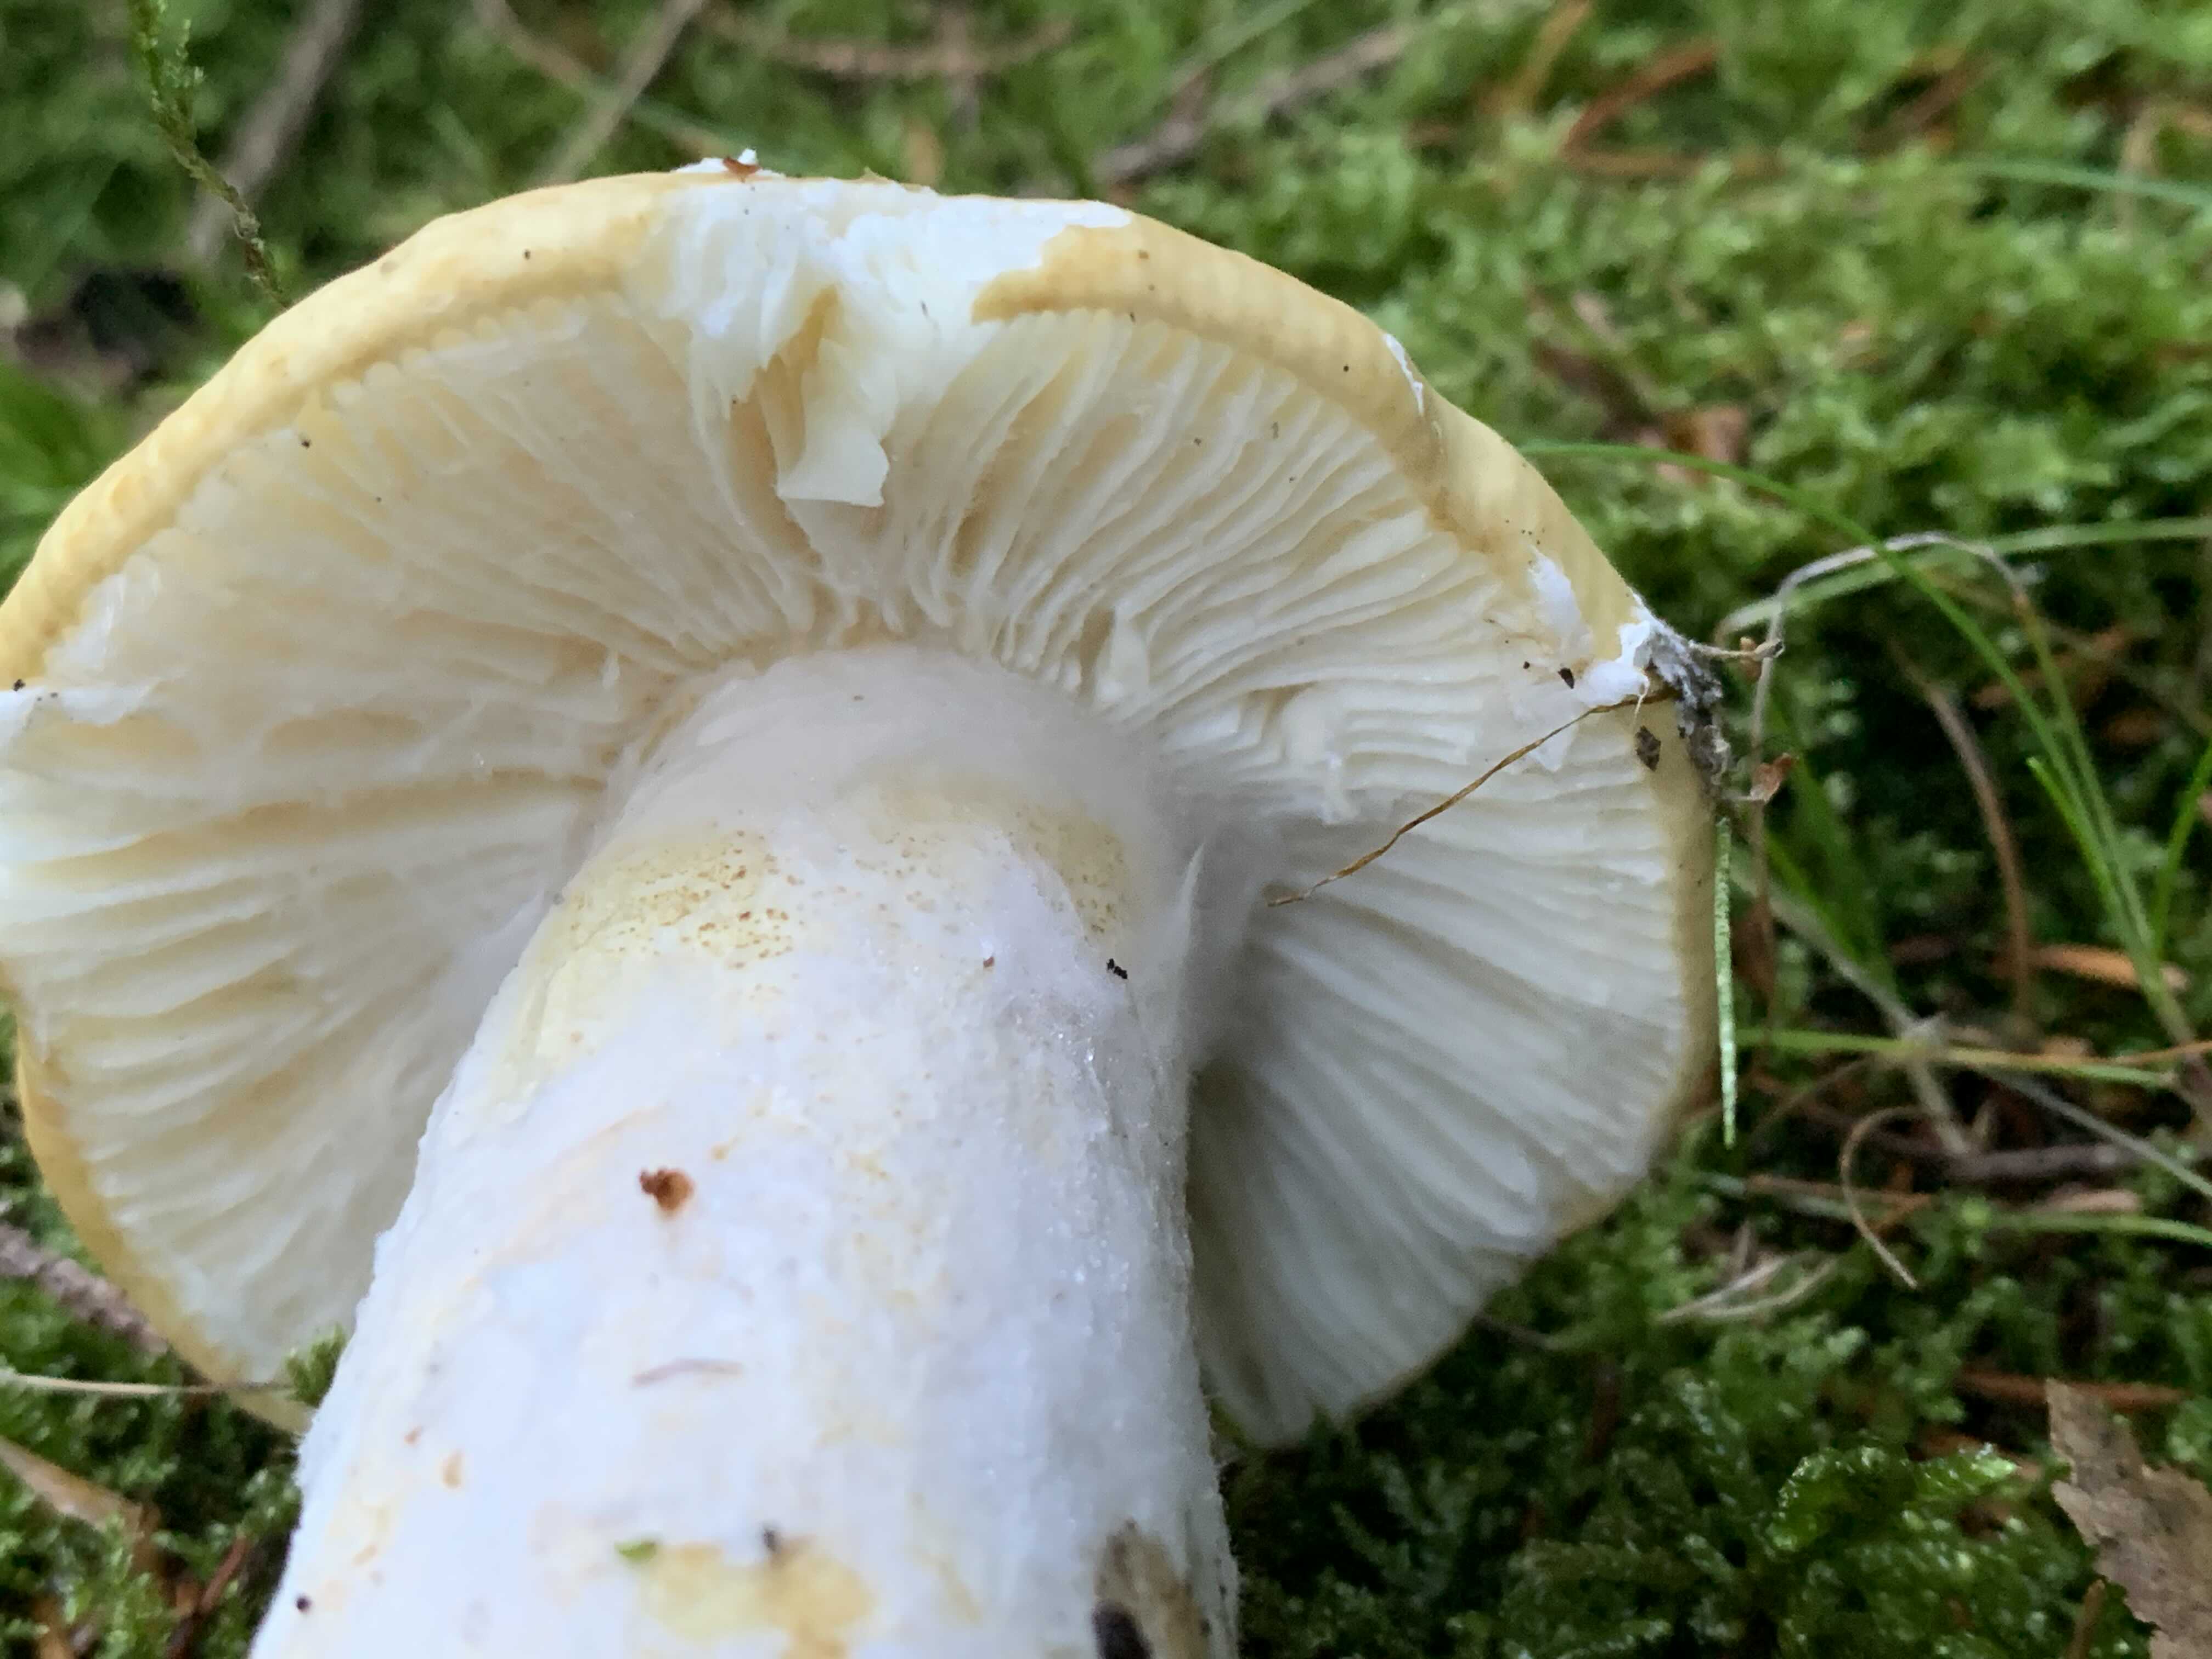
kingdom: Fungi
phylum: Basidiomycota
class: Agaricomycetes
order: Russulales
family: Russulaceae
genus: Russula
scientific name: Russula ochroleuca
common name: okkergul skørhat
